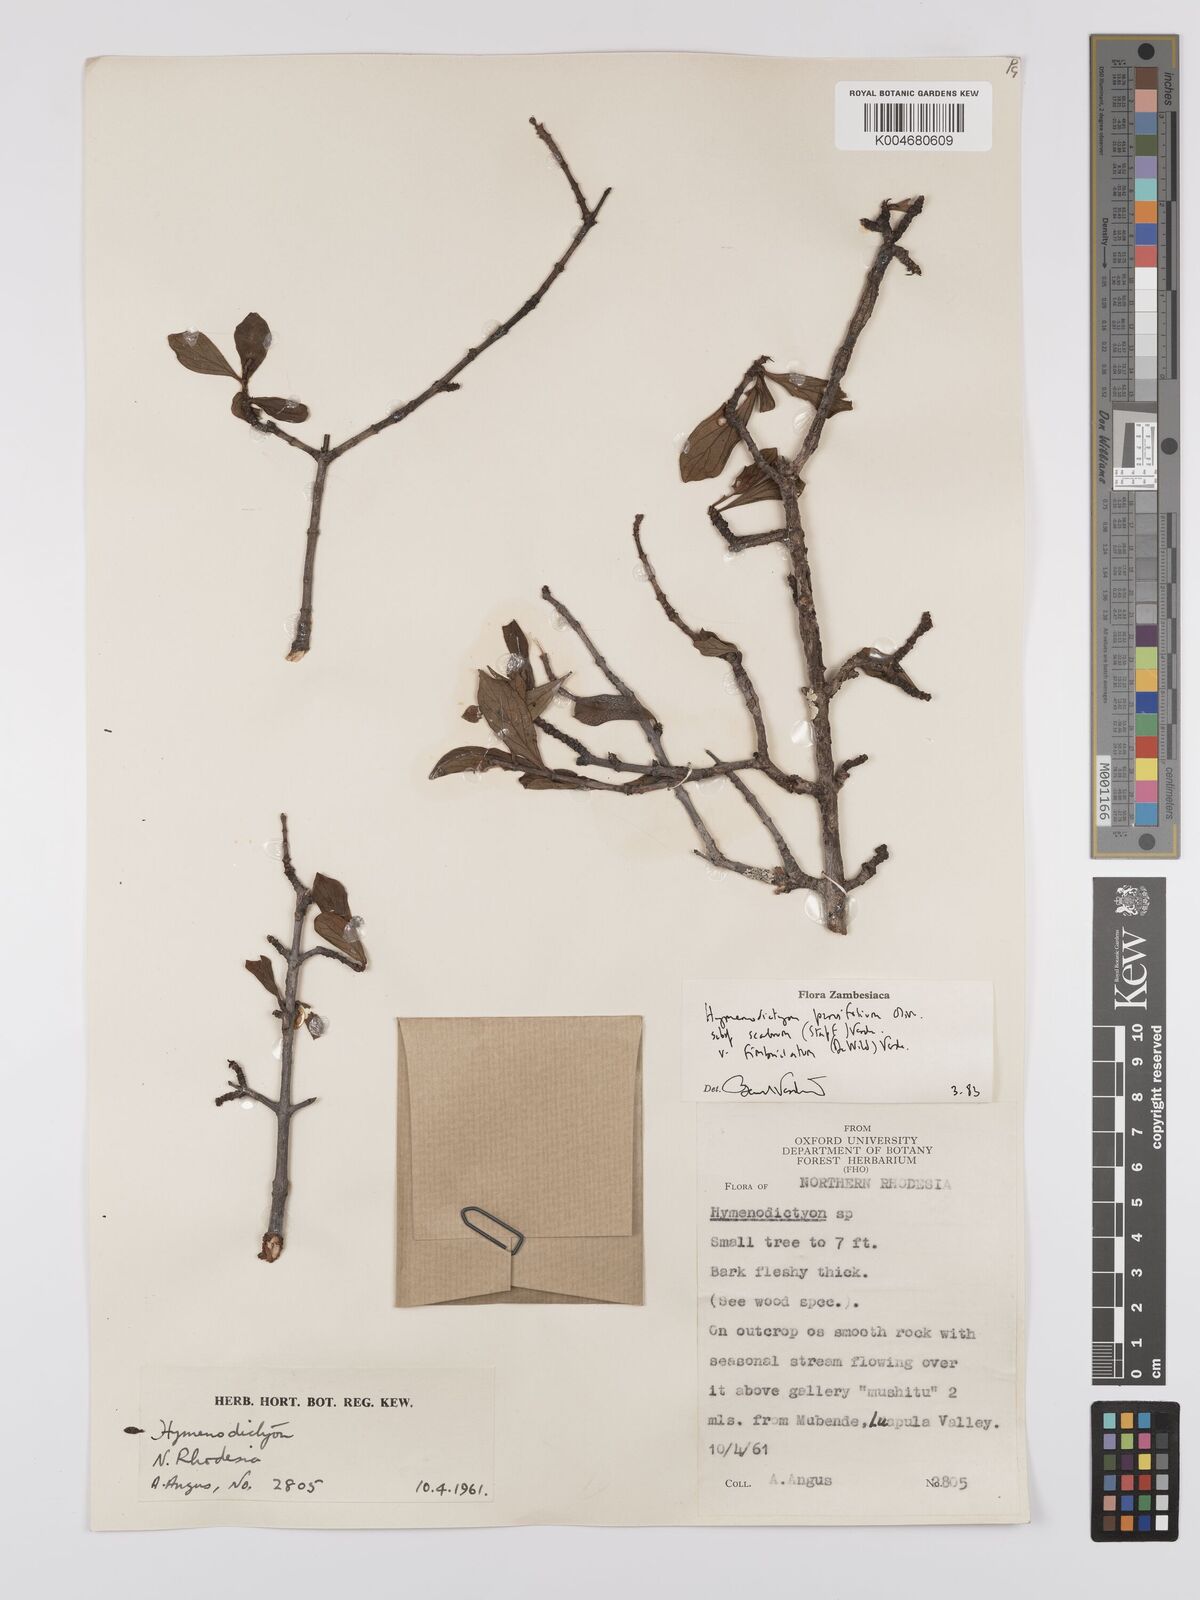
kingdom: Plantae
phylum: Tracheophyta
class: Magnoliopsida
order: Gentianales
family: Rubiaceae
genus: Hymenodictyon
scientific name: Hymenodictyon scabrum
